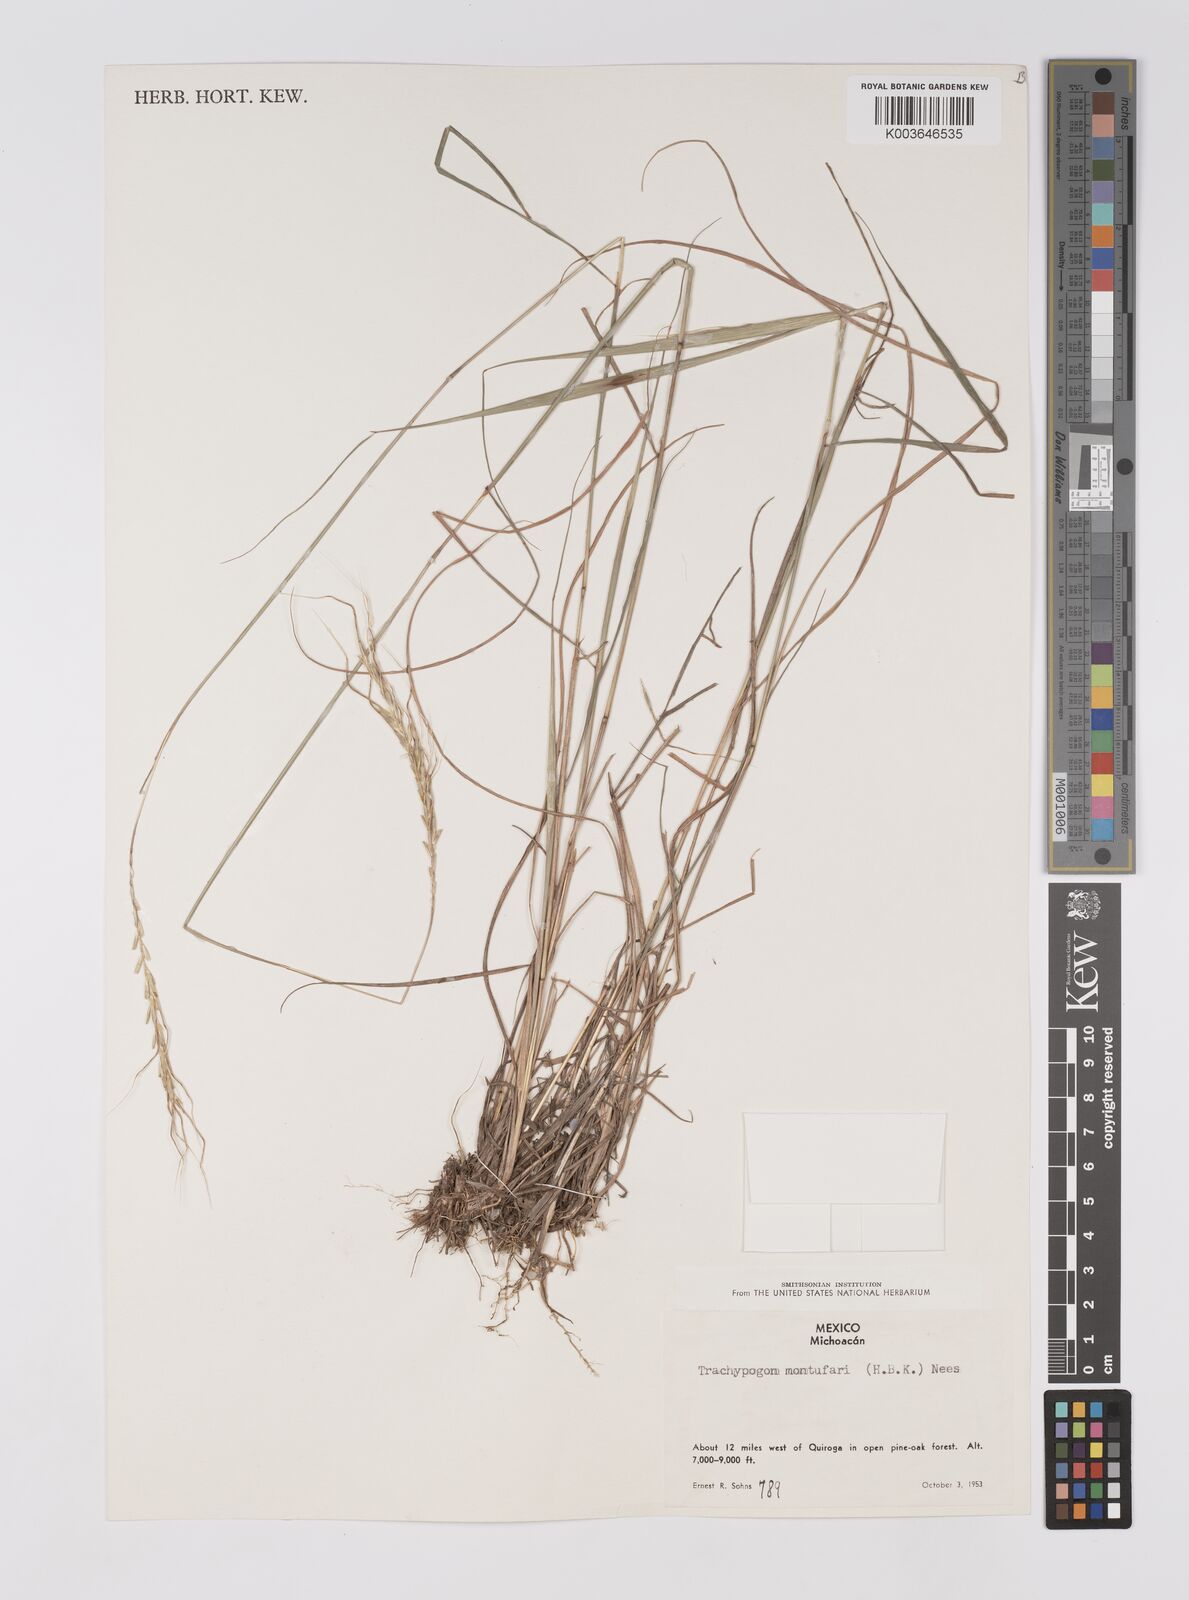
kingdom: Plantae
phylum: Tracheophyta
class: Liliopsida
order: Poales
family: Poaceae
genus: Trachypogon
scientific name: Trachypogon spicatus
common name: Crinkle-awn
